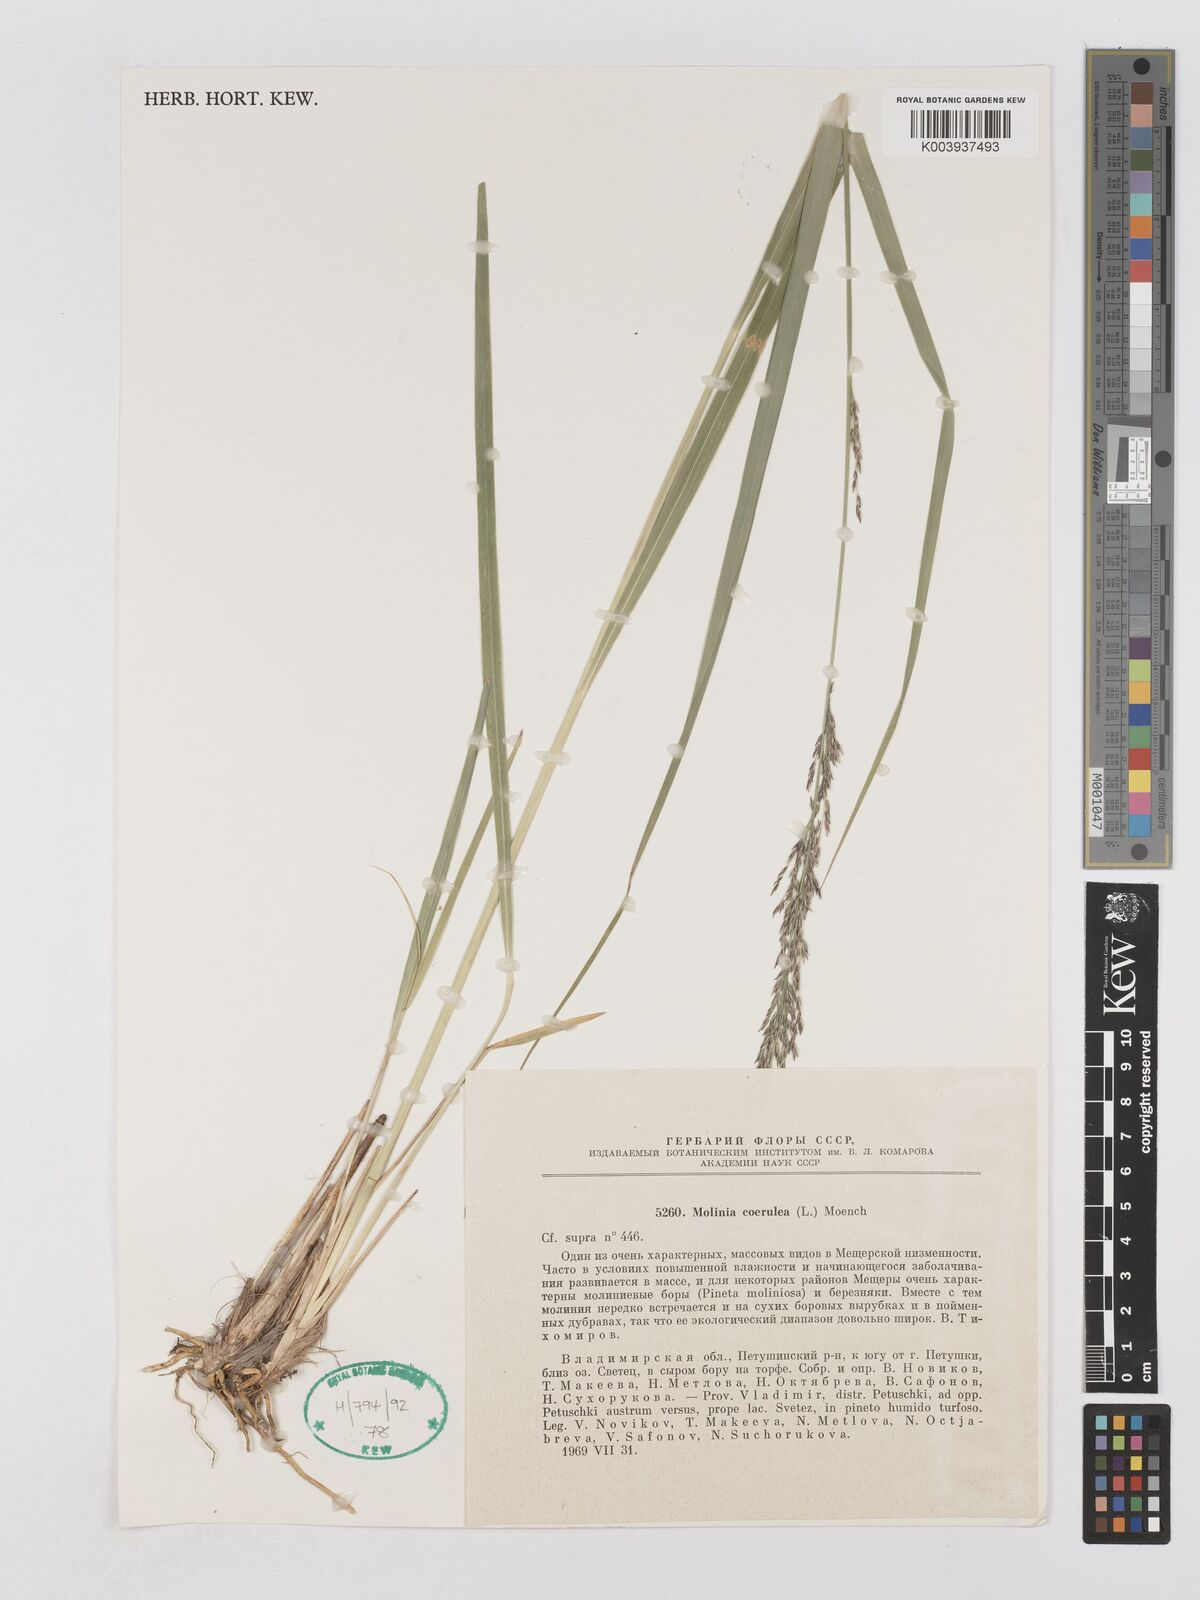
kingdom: Plantae
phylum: Tracheophyta
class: Liliopsida
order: Poales
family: Poaceae
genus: Molinia
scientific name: Molinia caerulea
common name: Purple moor-grass
